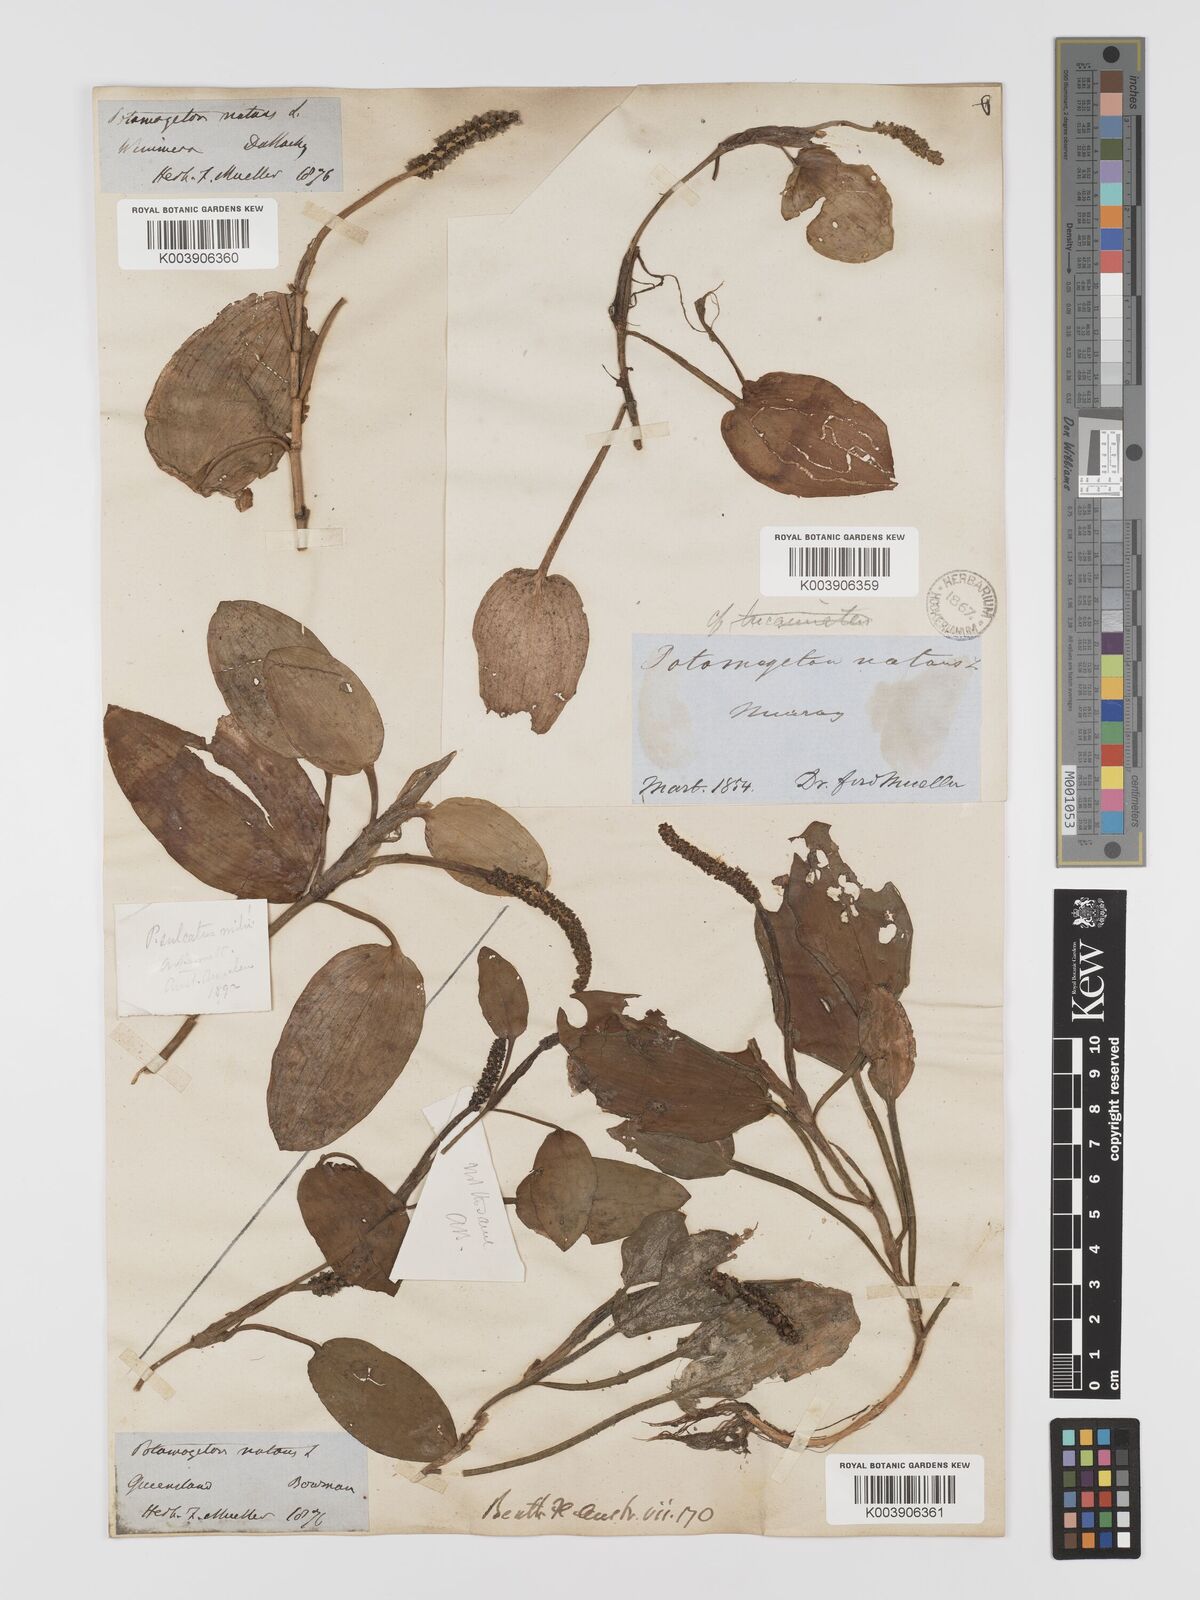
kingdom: Plantae
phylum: Tracheophyta
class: Liliopsida
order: Alismatales
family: Potamogetonaceae
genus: Potamogeton
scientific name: Potamogeton sulcatus
